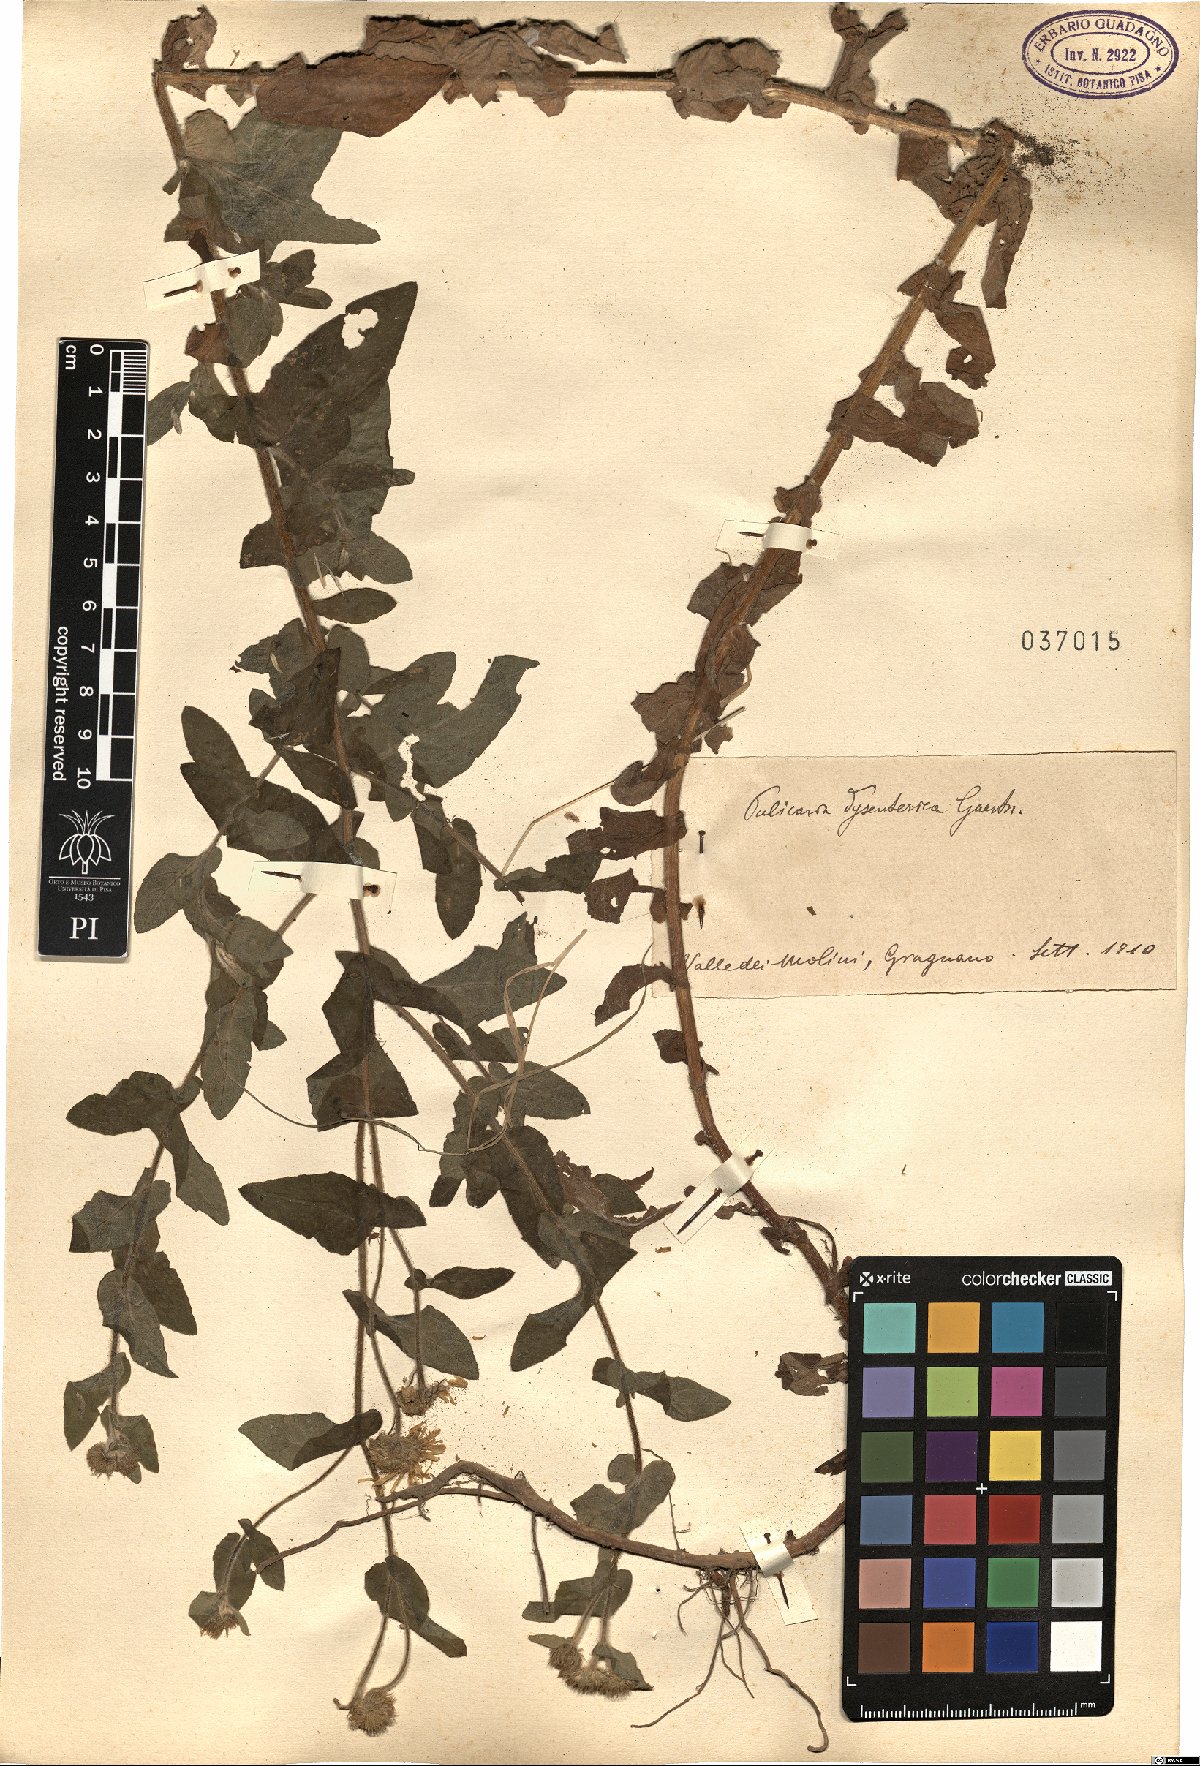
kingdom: Plantae
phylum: Tracheophyta
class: Magnoliopsida
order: Asterales
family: Asteraceae
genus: Pulicaria
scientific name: Pulicaria dysenterica
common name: Common fleabane
